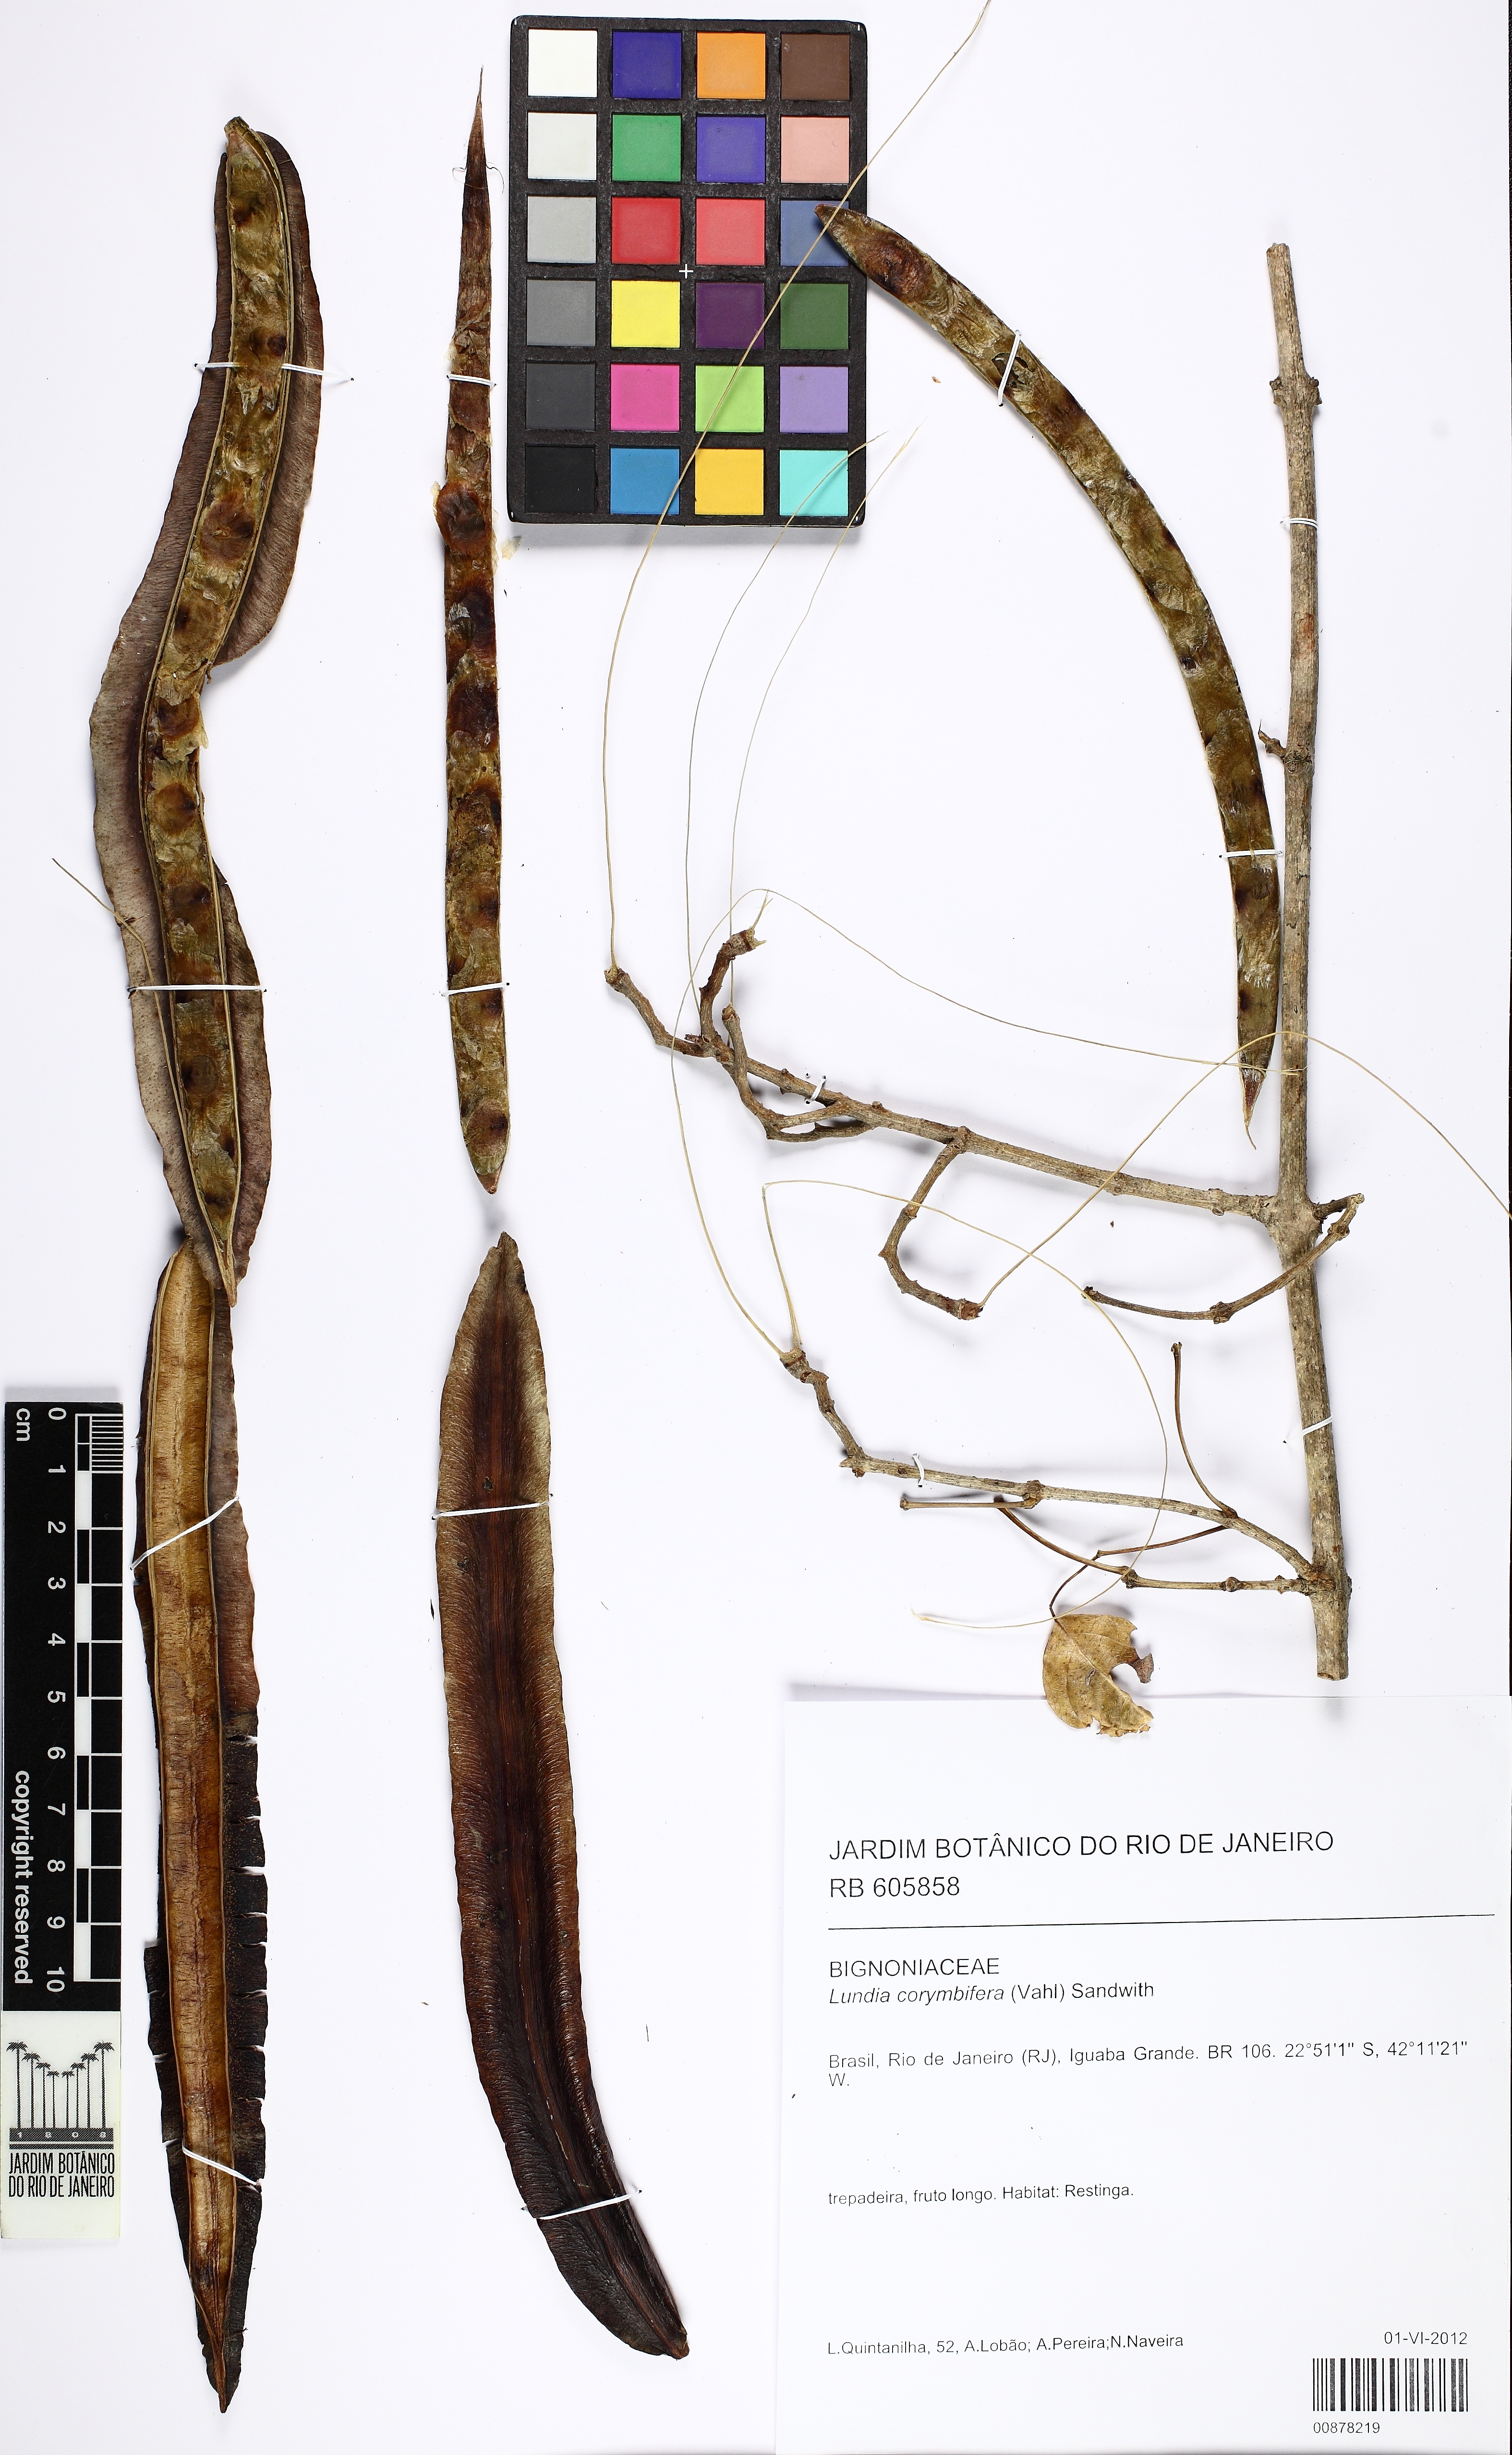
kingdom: Plantae
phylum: Tracheophyta
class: Magnoliopsida
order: Lamiales
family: Bignoniaceae
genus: Lundia
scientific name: Lundia corymbifera
